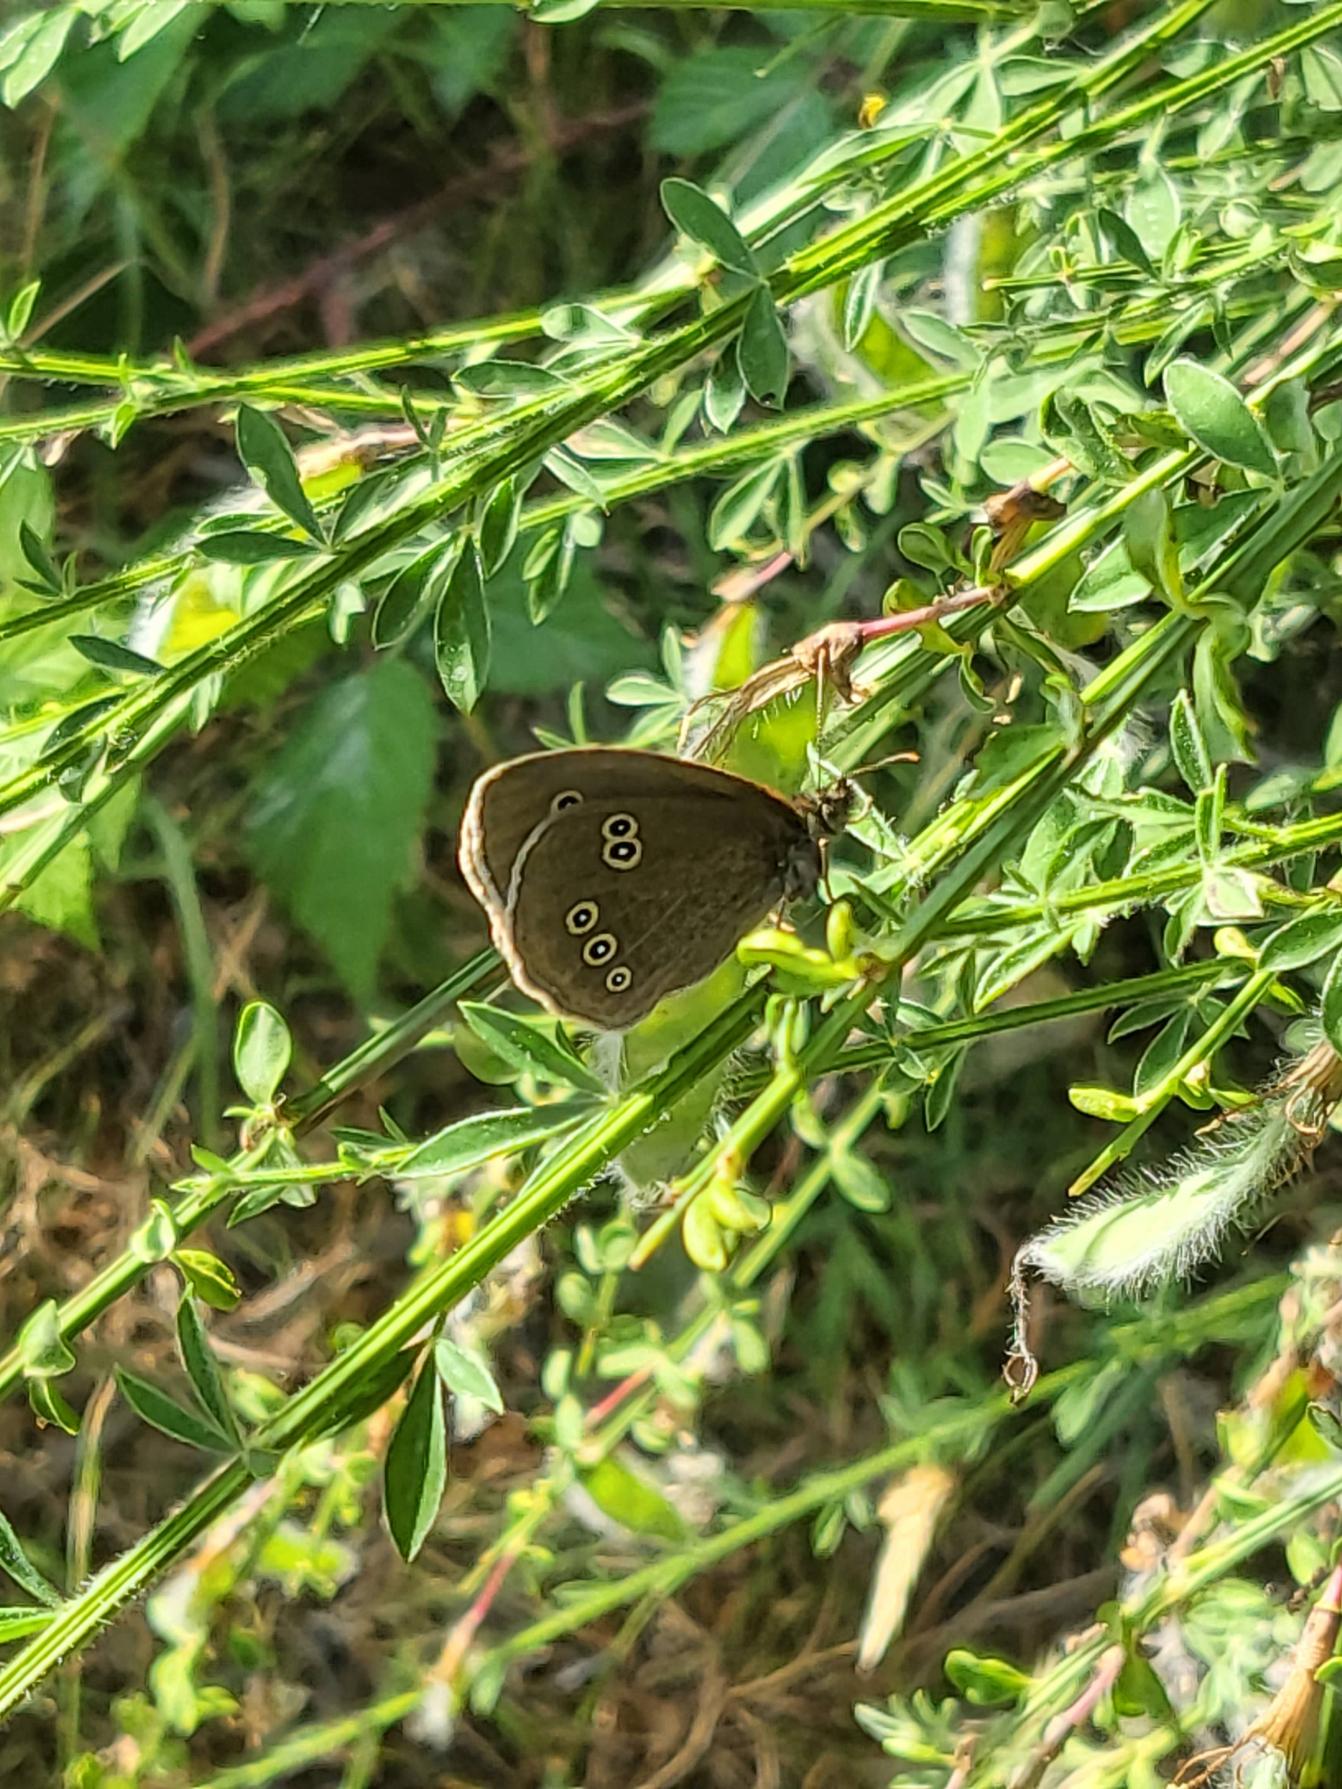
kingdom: Animalia
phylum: Arthropoda
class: Insecta
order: Lepidoptera
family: Nymphalidae
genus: Aphantopus
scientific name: Aphantopus hyperantus
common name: Engrandøje
